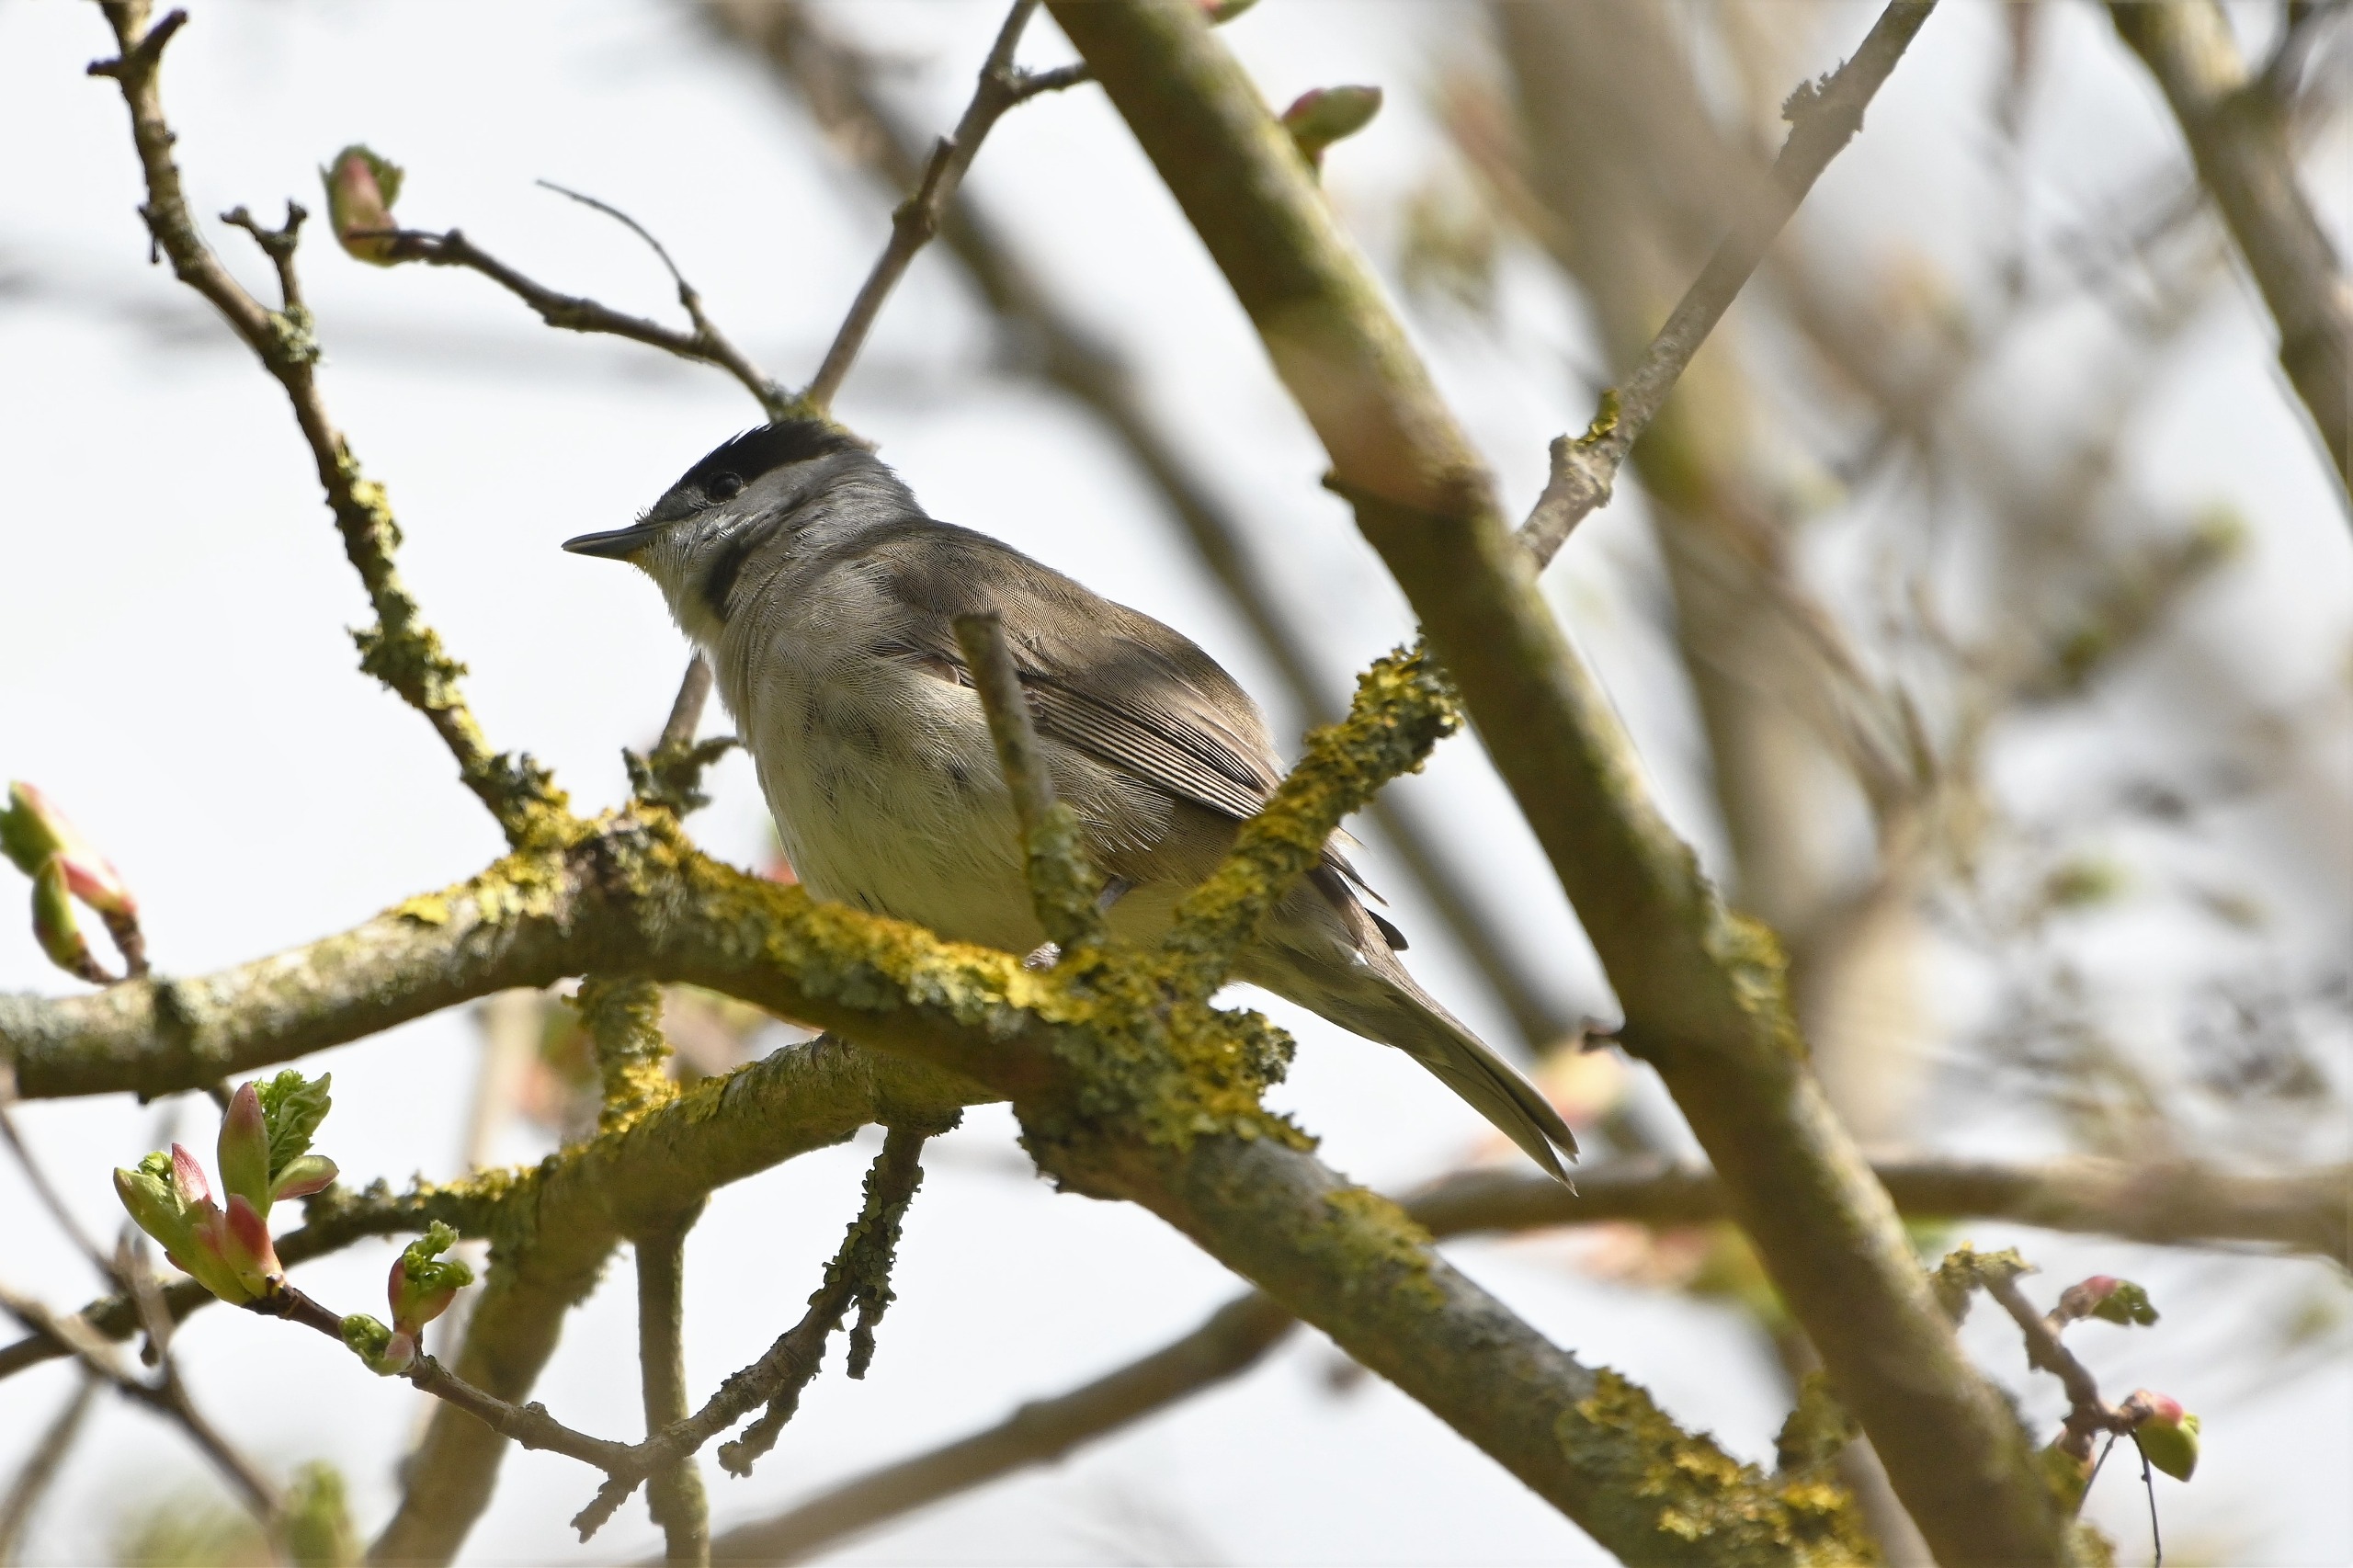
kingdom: Animalia
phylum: Chordata
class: Aves
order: Passeriformes
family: Sylviidae
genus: Sylvia
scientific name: Sylvia atricapilla
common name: Munk
